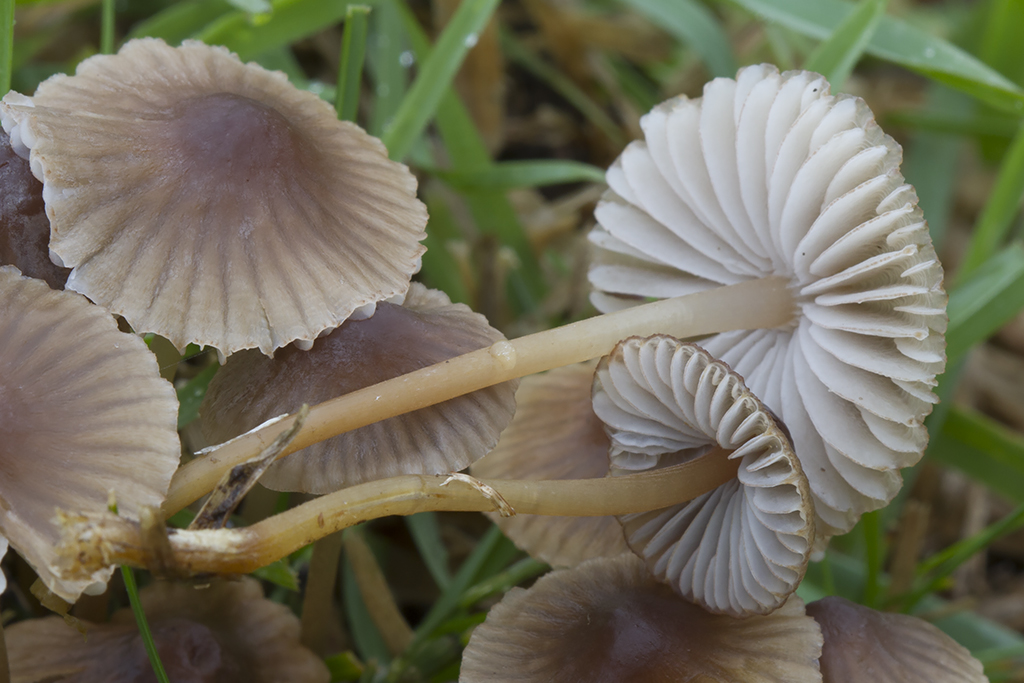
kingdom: Fungi
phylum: Basidiomycota
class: Agaricomycetes
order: Agaricales
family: Mycenaceae
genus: Mycena
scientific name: Mycena olivaceomarginata
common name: brunægget huesvamp
